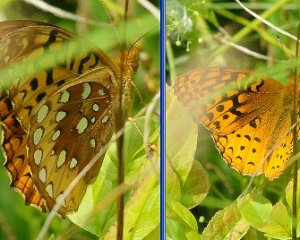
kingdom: Animalia
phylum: Arthropoda
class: Insecta
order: Lepidoptera
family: Nymphalidae
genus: Speyeria
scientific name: Speyeria cybele
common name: Great Spangled Fritillary
